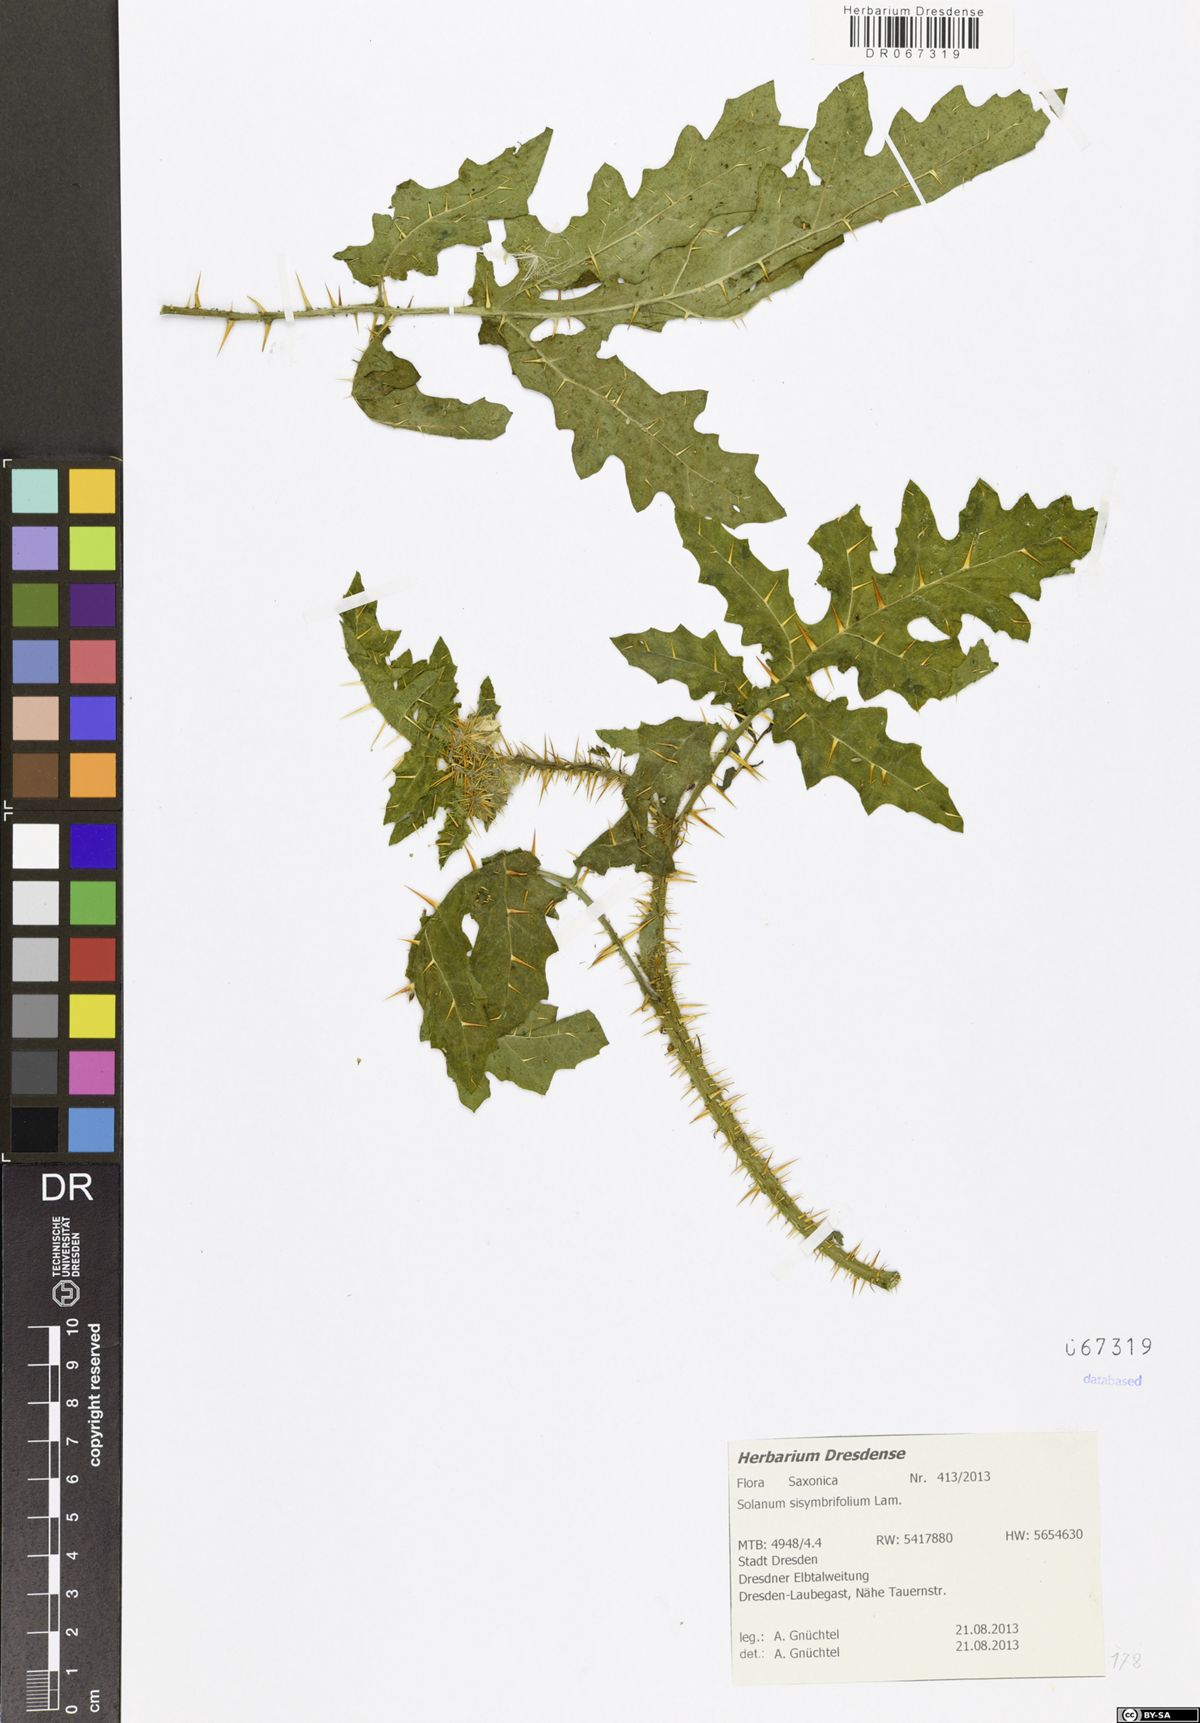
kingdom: Plantae
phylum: Tracheophyta
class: Magnoliopsida
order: Solanales
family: Solanaceae
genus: Solanum
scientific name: Solanum sisymbriifolium
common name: Red buffalo-bur
